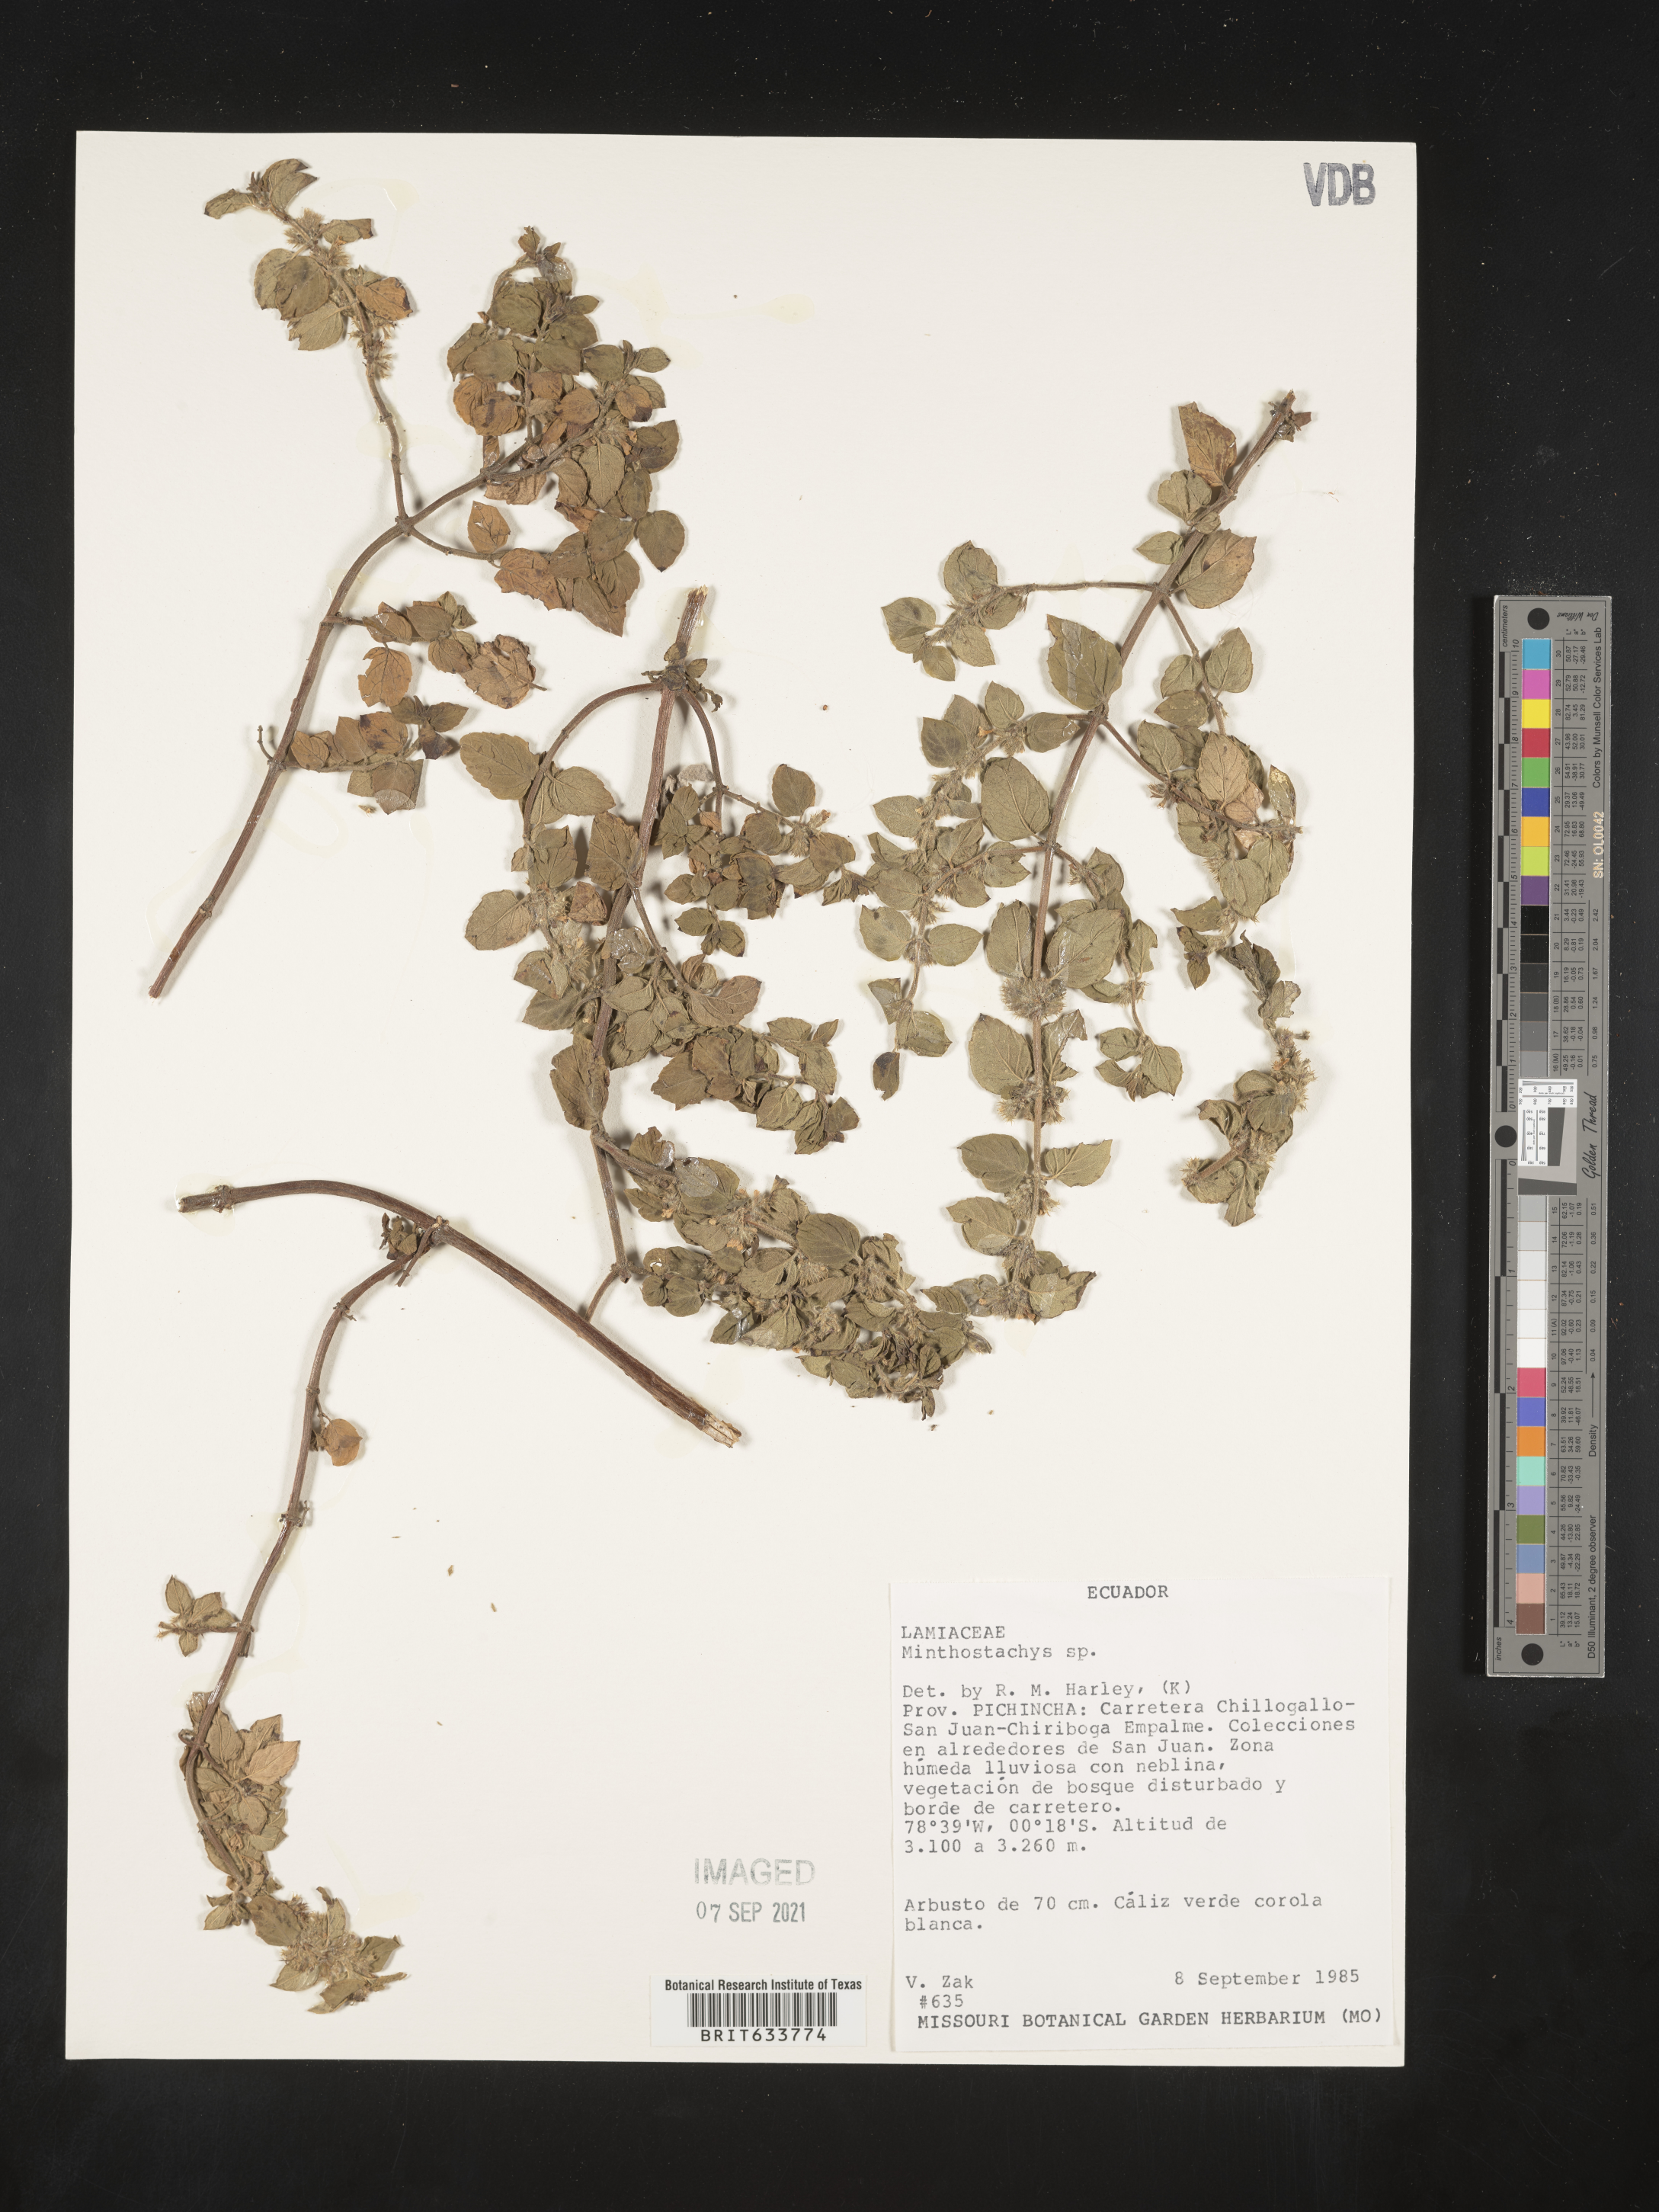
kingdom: Plantae
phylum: Tracheophyta
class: Magnoliopsida
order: Lamiales
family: Lamiaceae
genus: Minthostachys
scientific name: Minthostachys
